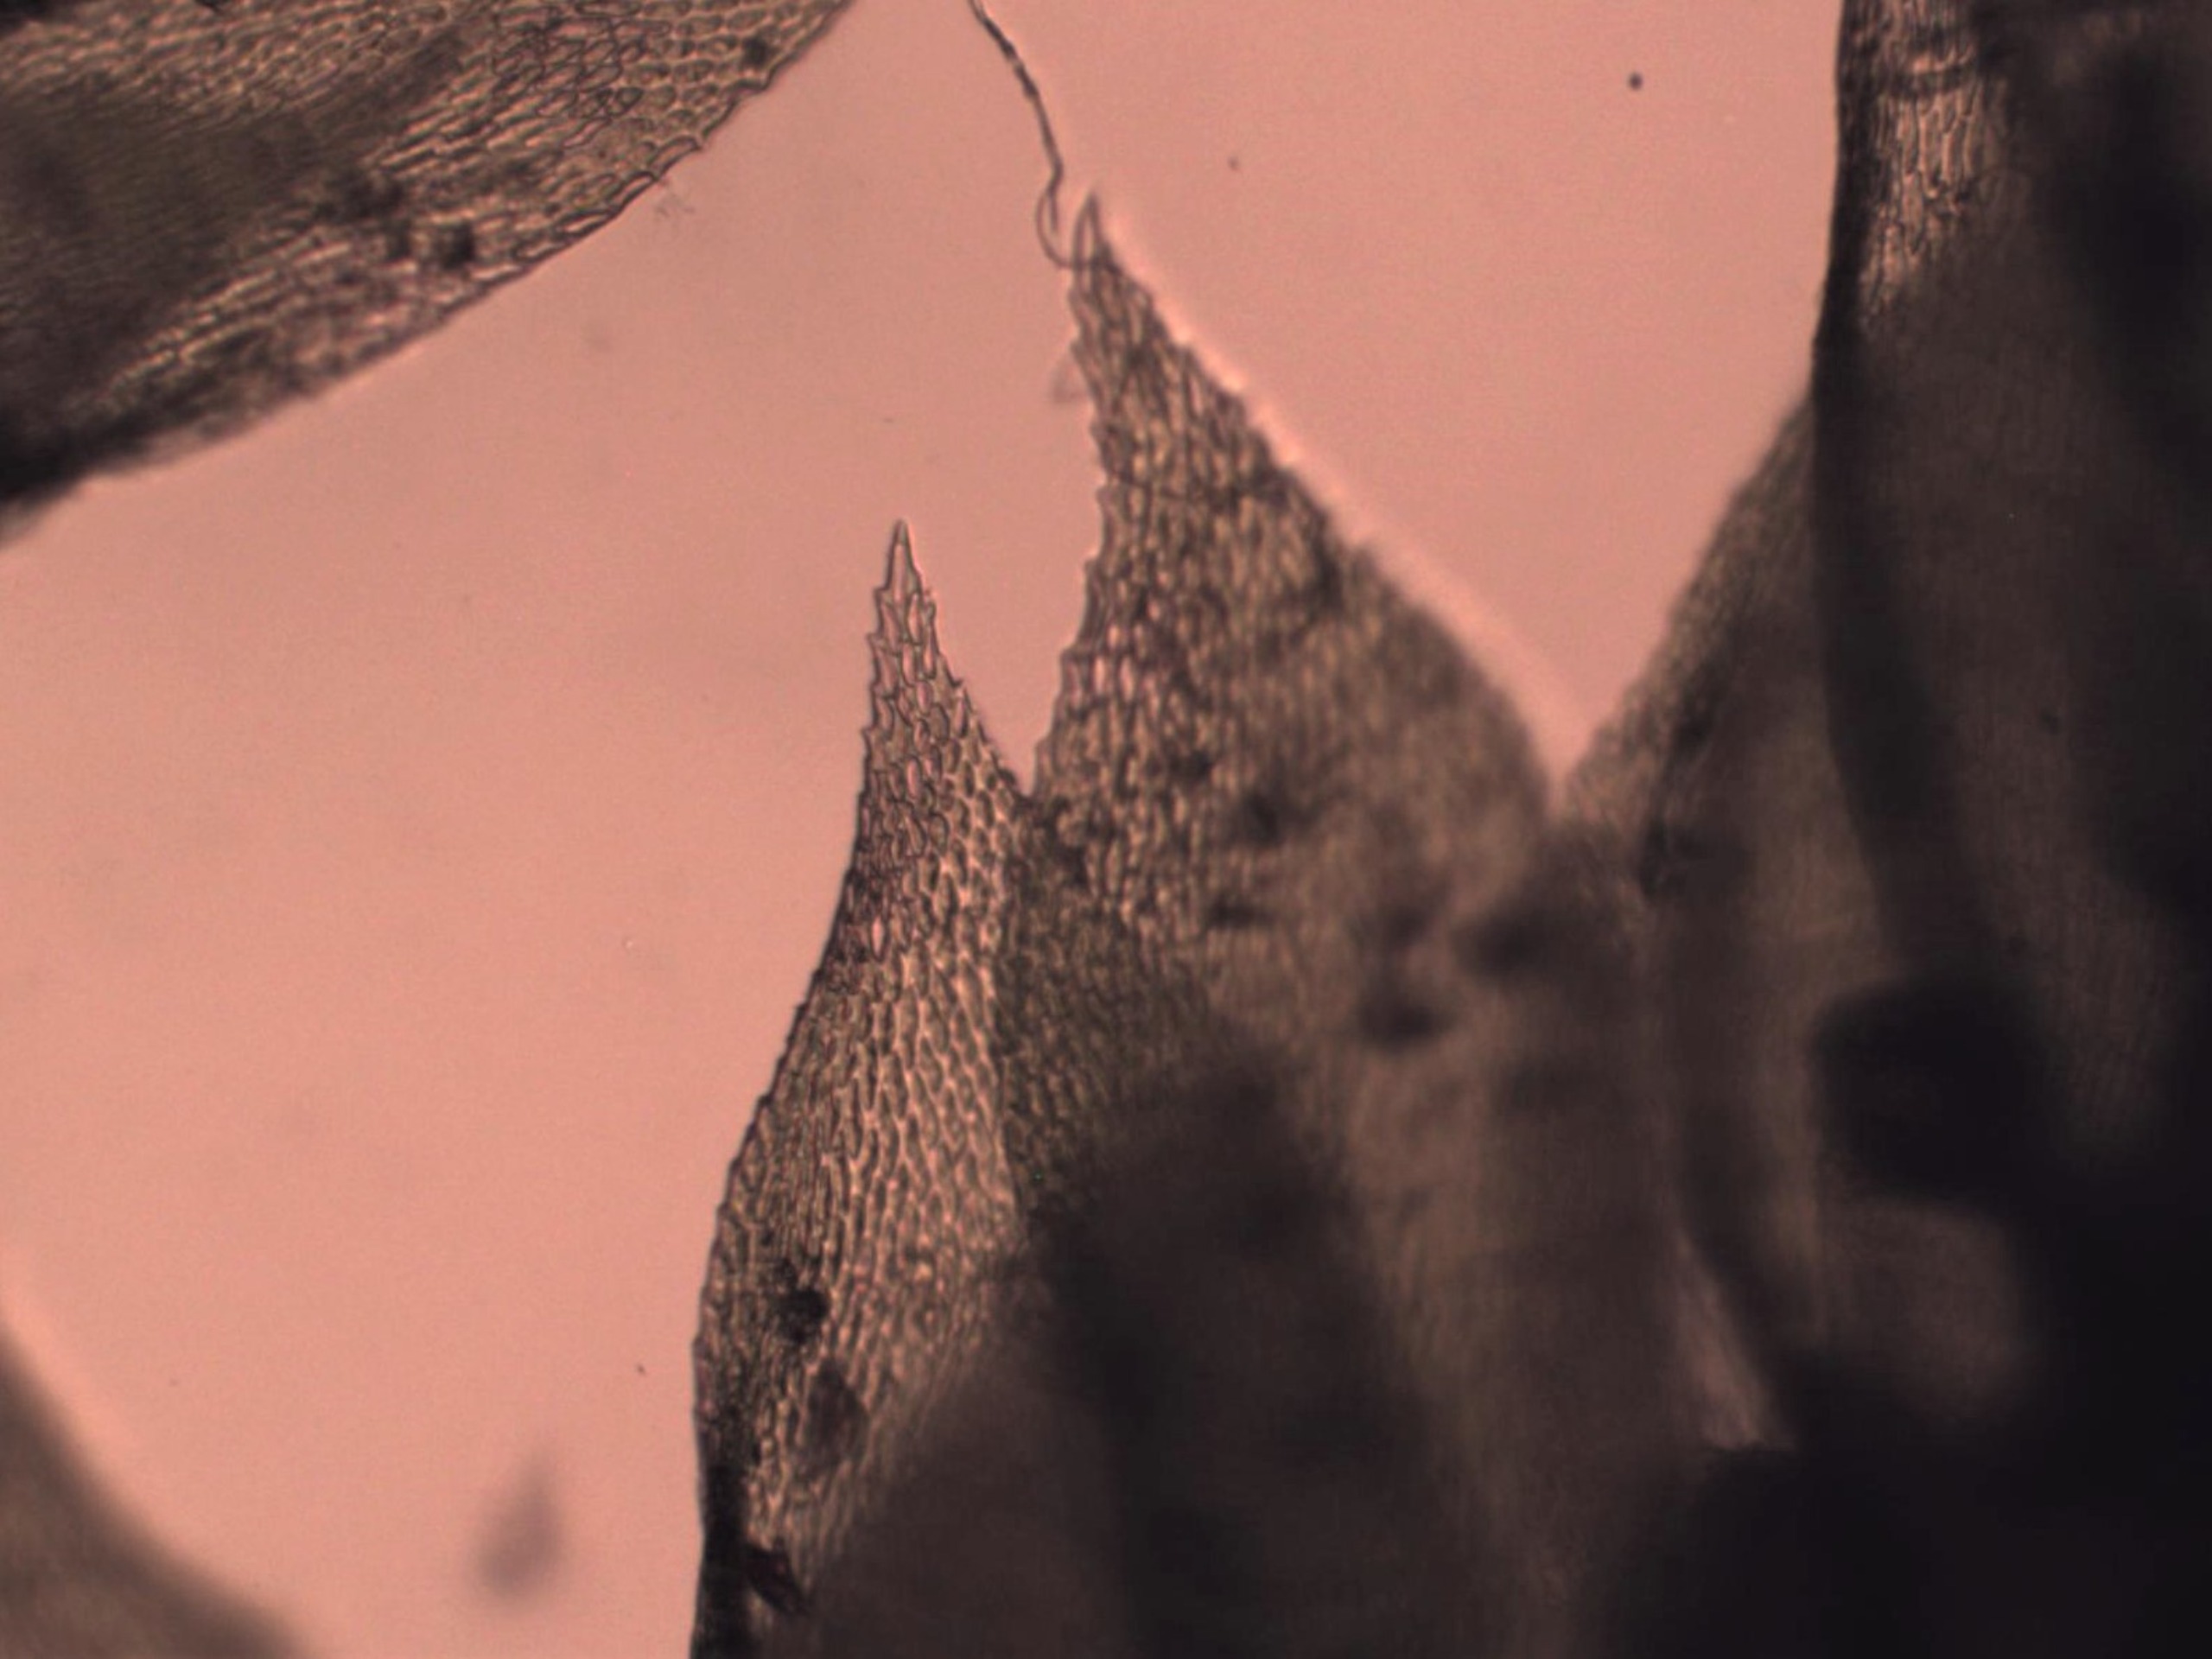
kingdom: Plantae
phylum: Bryophyta
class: Bryopsida
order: Hypnales
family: Neckeraceae
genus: Neckera
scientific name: Neckera pumila
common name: Lav fladmos
